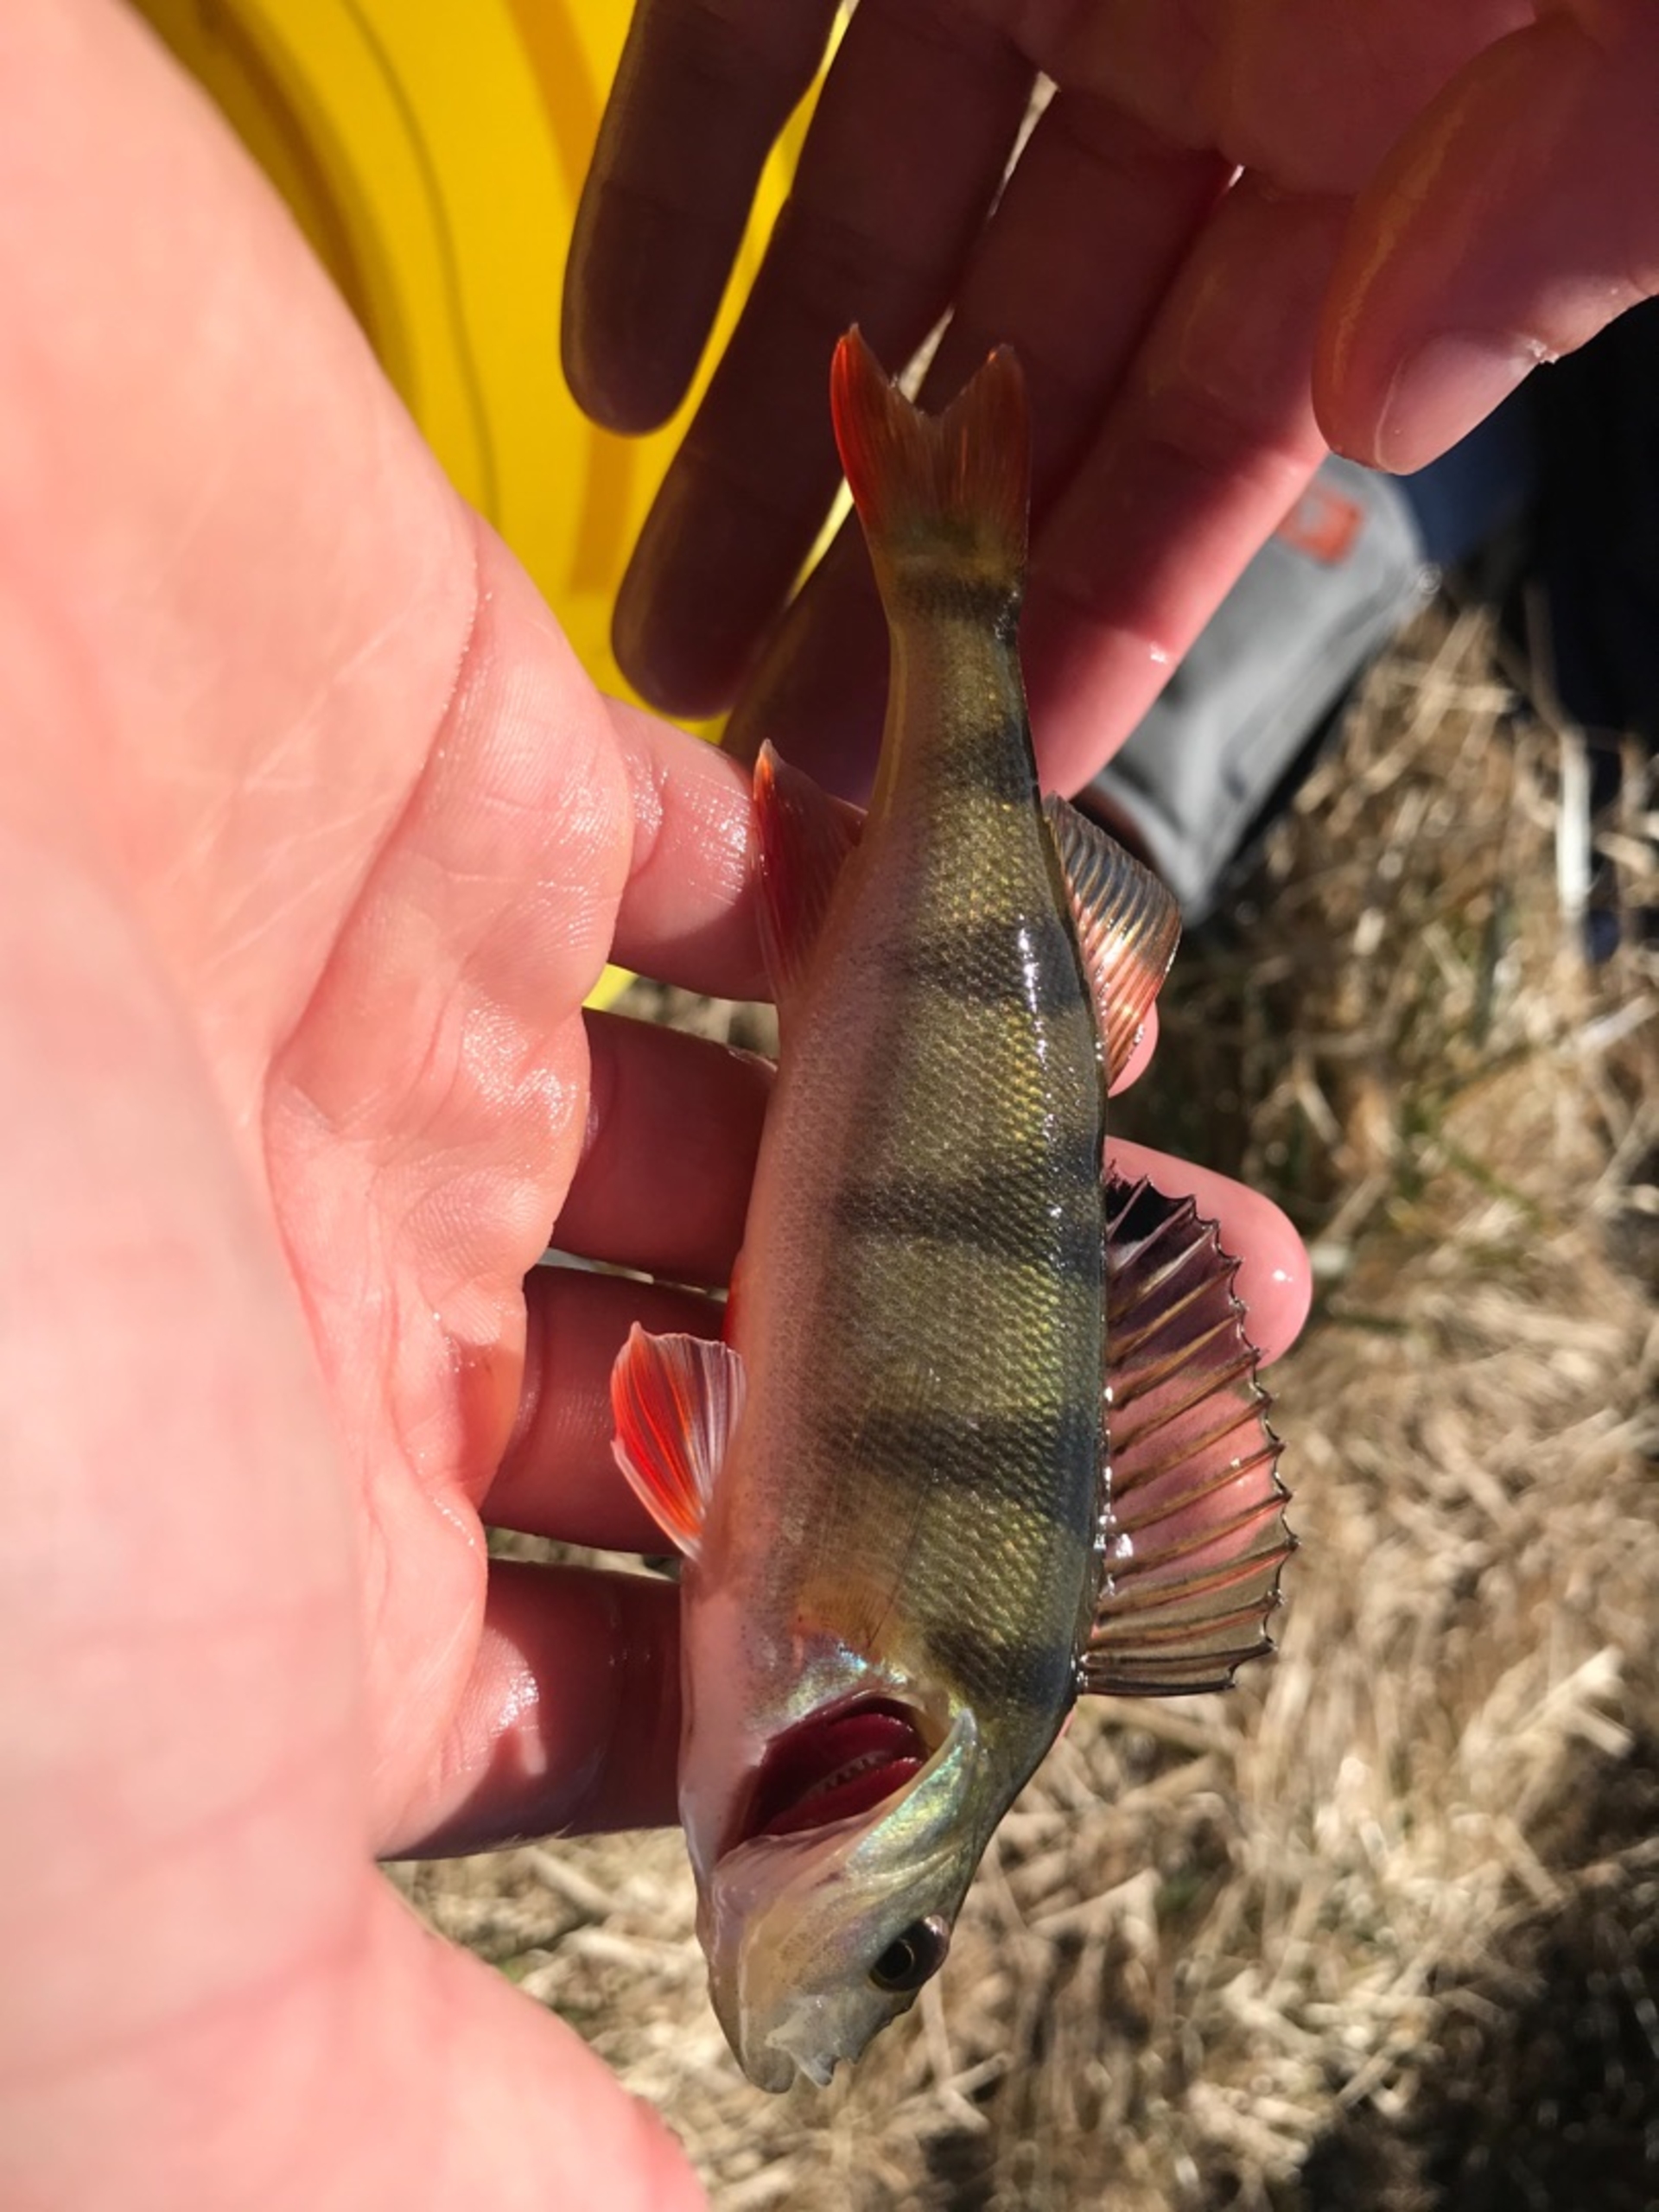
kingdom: Animalia
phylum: Chordata
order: Perciformes
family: Percidae
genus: Perca
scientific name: Perca fluviatilis
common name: Aborre
